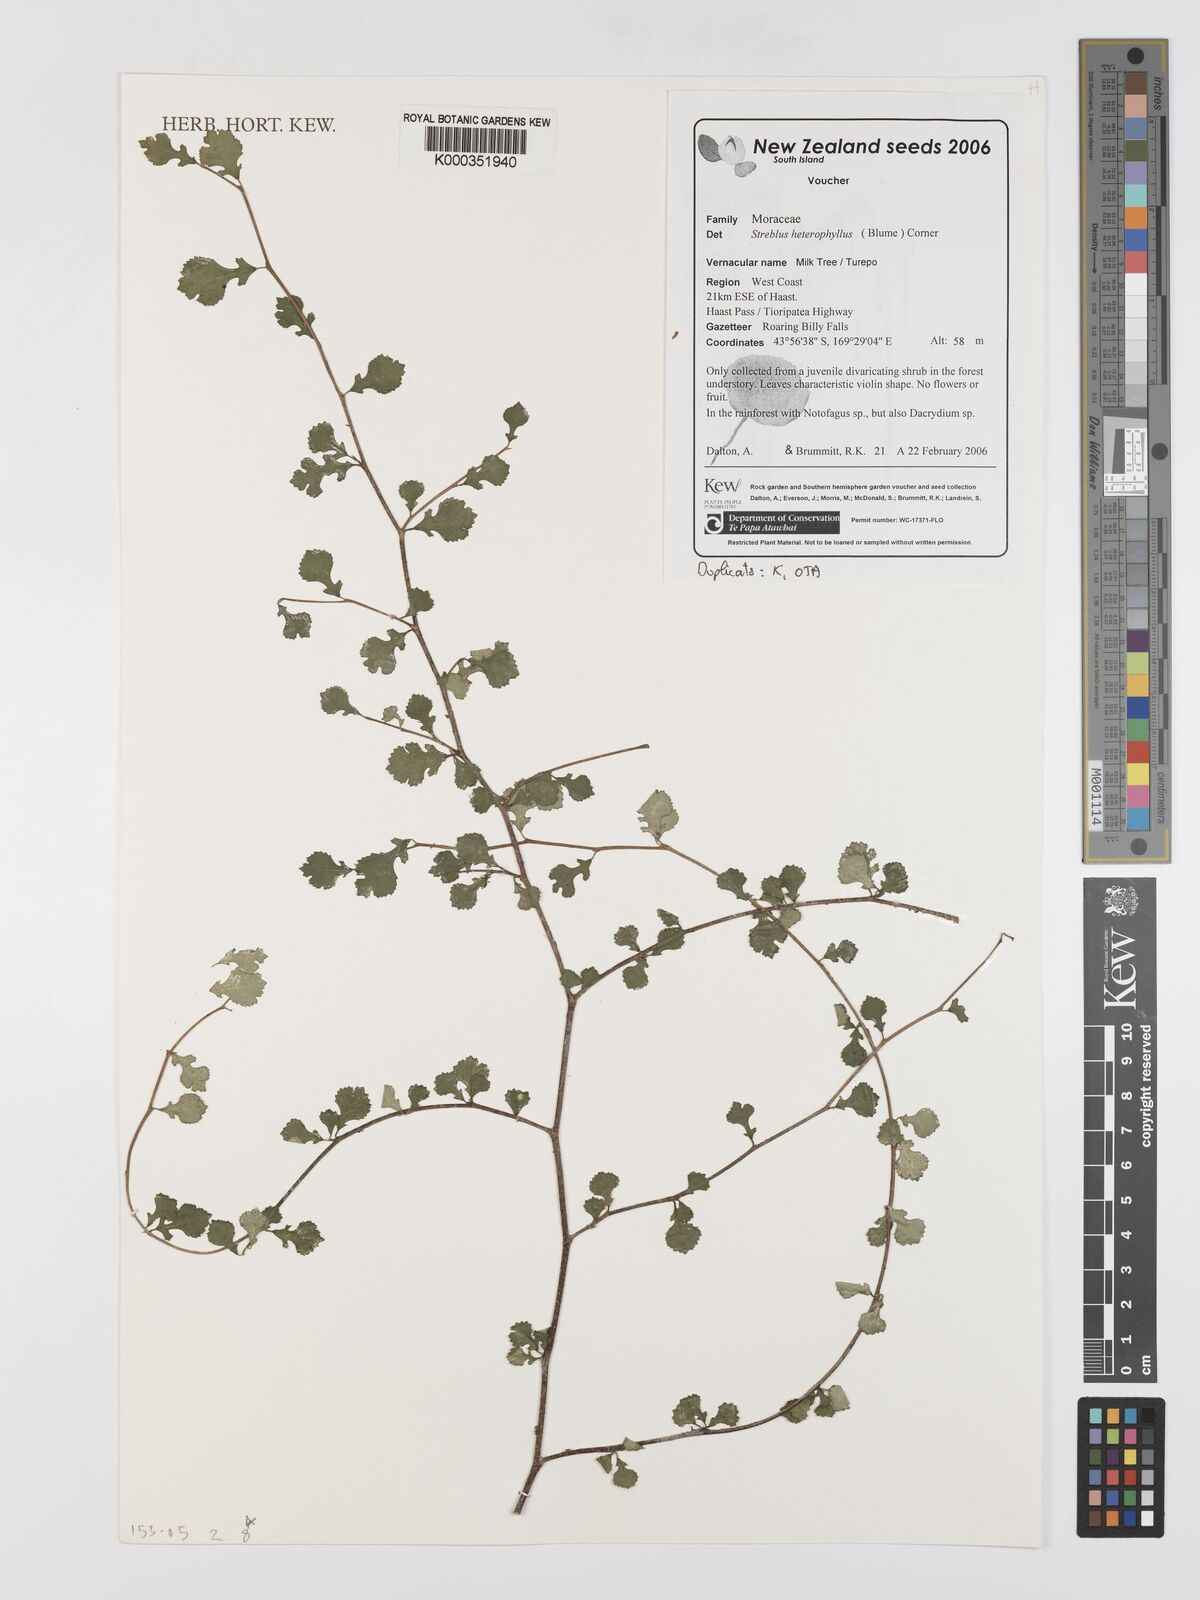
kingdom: Plantae
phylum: Tracheophyta
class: Magnoliopsida
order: Rosales
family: Moraceae
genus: Paratrophis
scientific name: Paratrophis microphylla
